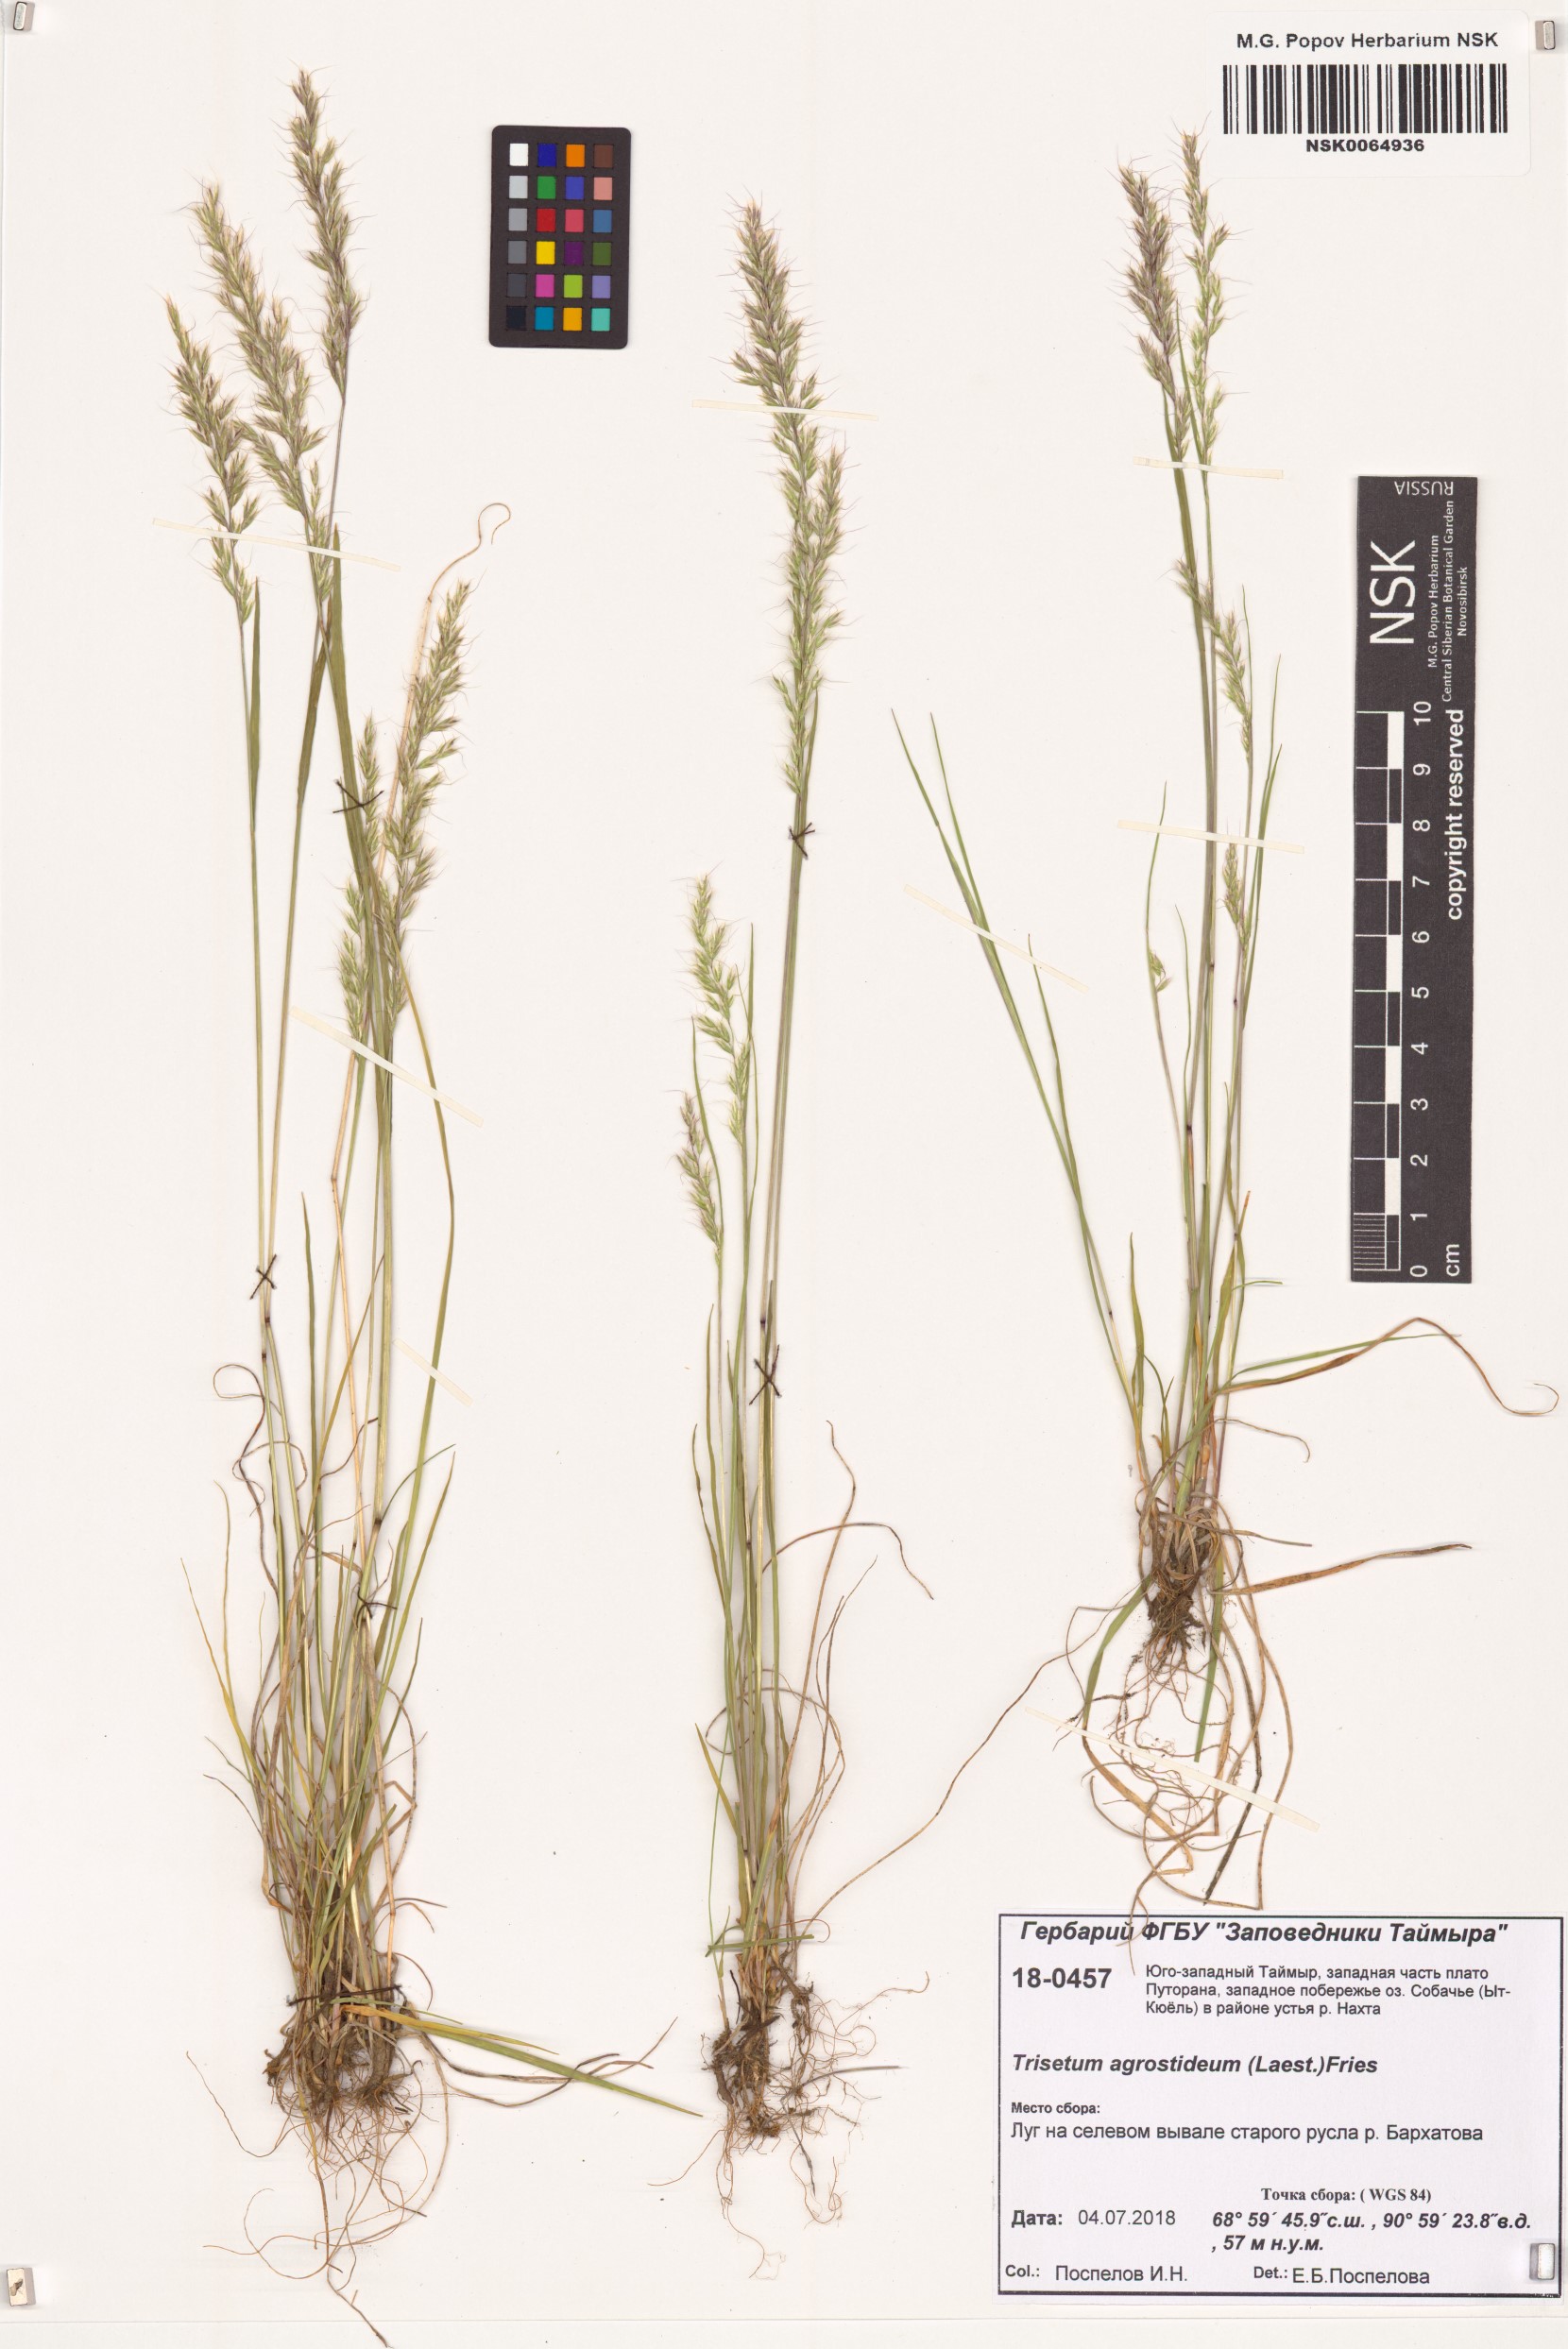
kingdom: Plantae
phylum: Tracheophyta
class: Liliopsida
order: Poales
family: Poaceae
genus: Koeleria
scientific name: Koeleria subalpestris
